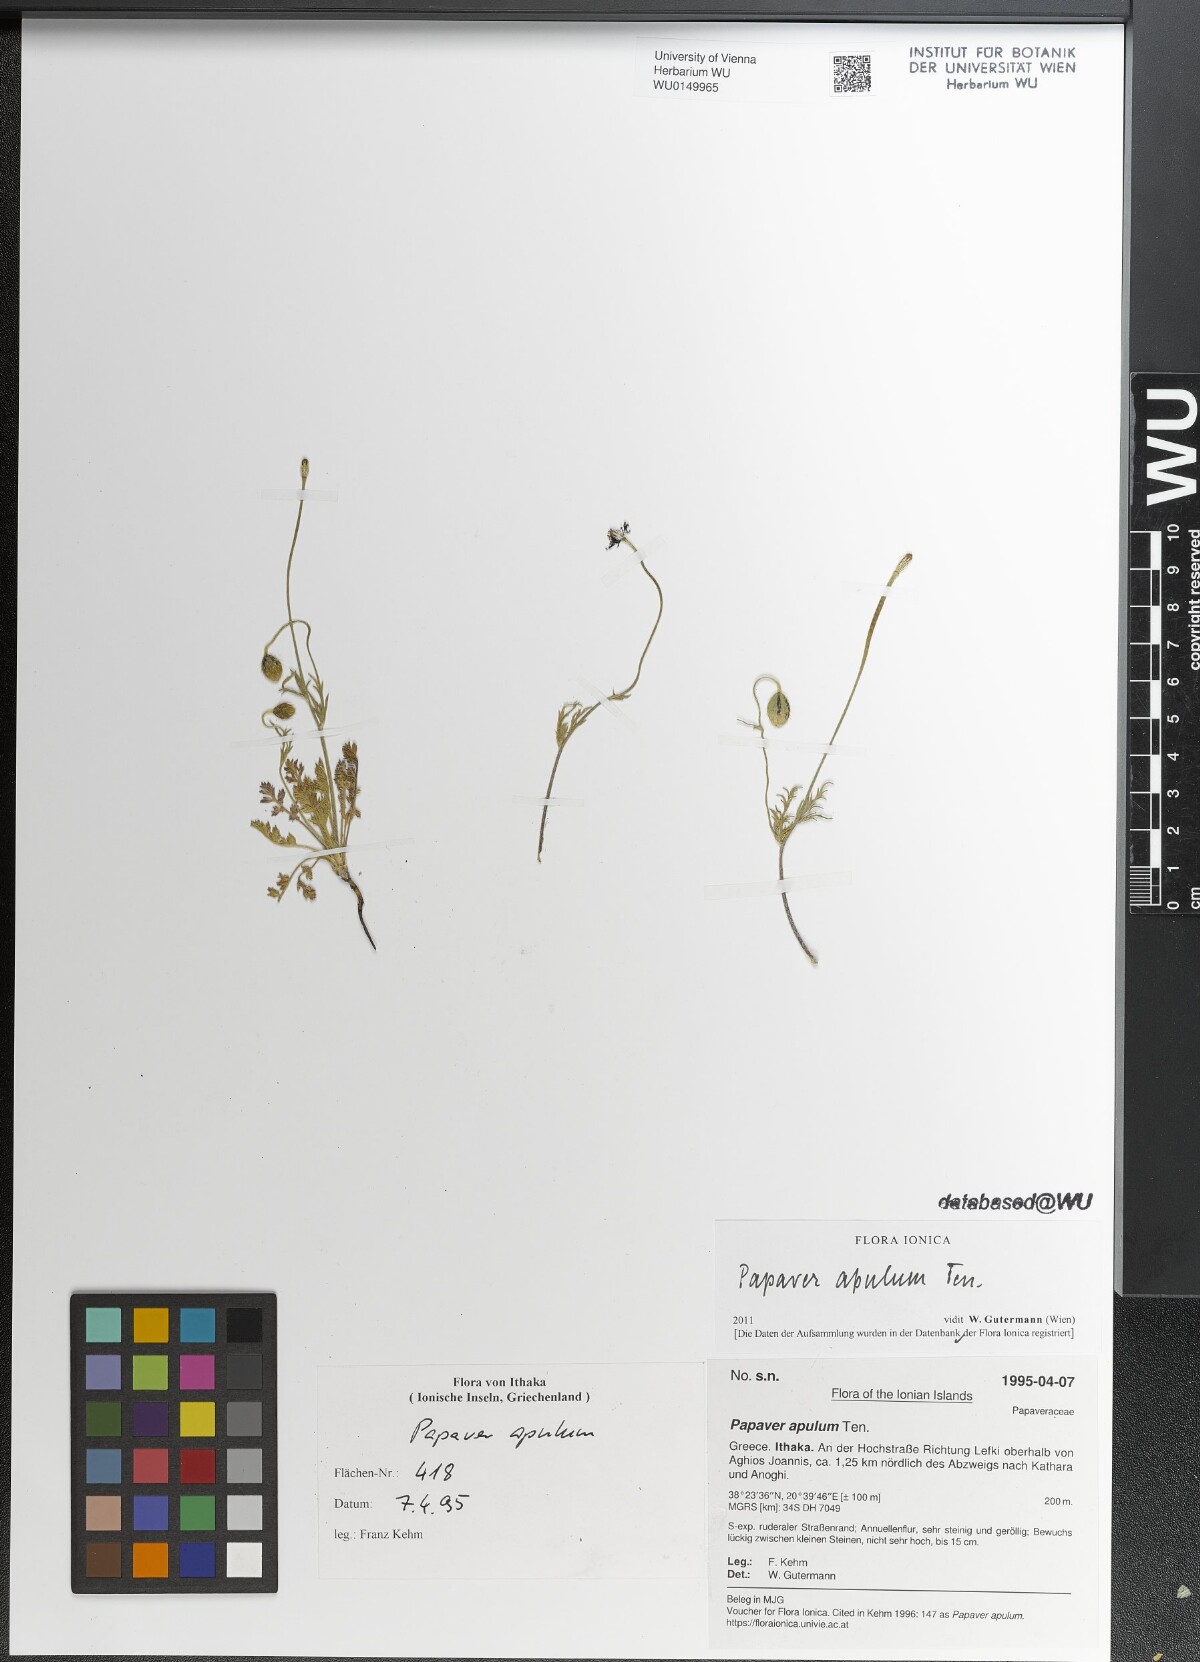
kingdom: Plantae
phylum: Tracheophyta
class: Magnoliopsida
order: Ranunculales
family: Papaveraceae
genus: Roemeria
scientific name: Roemeria apula
